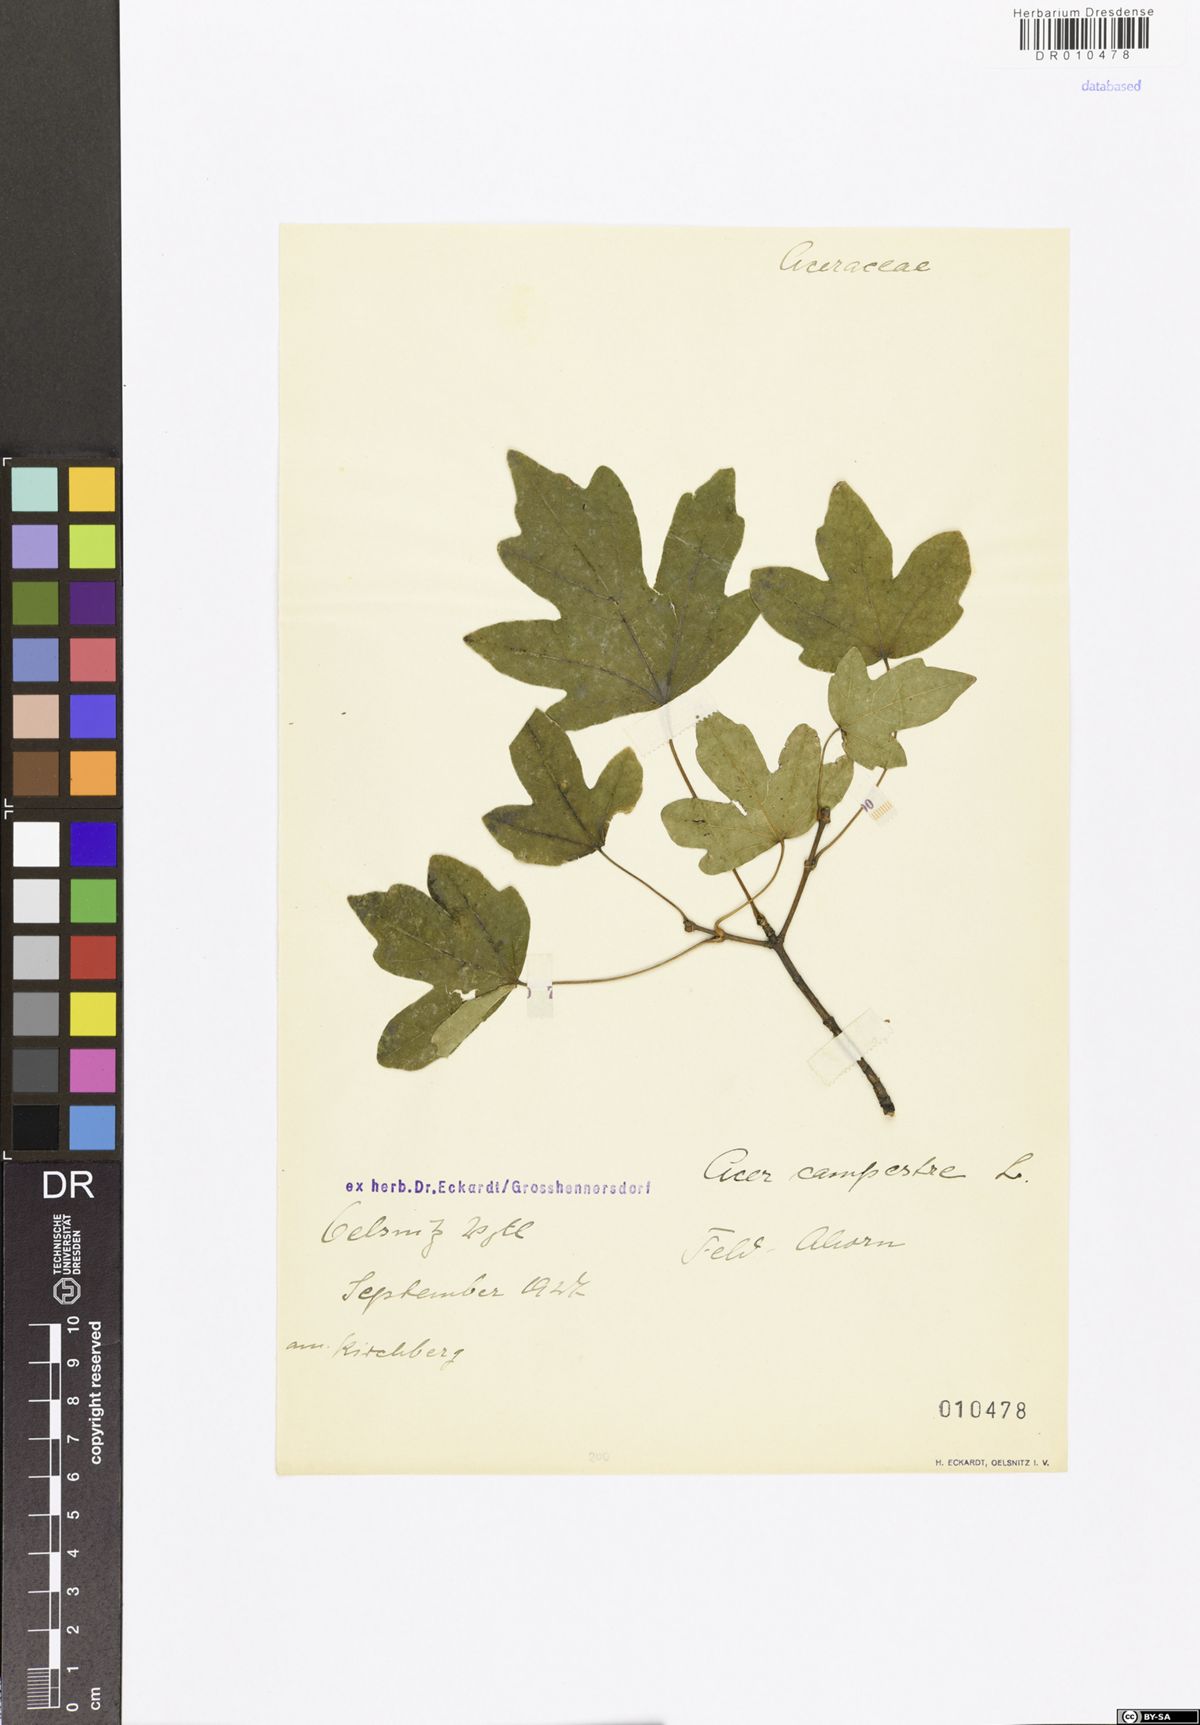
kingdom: Plantae
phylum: Tracheophyta
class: Magnoliopsida
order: Sapindales
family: Sapindaceae
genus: Acer
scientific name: Acer campestre
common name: Field maple
